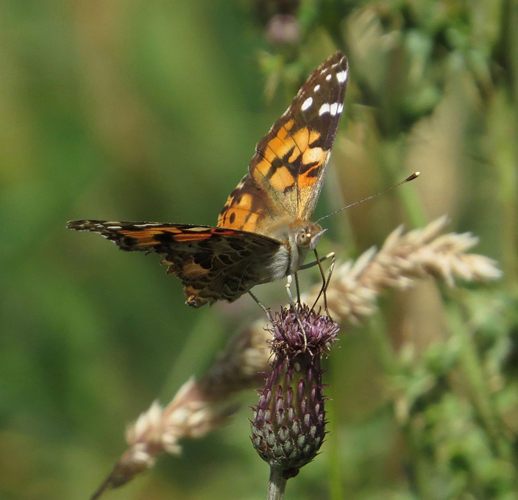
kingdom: Animalia
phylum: Arthropoda
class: Insecta
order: Lepidoptera
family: Nymphalidae
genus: Vanessa
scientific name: Vanessa cardui
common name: Painted Lady
